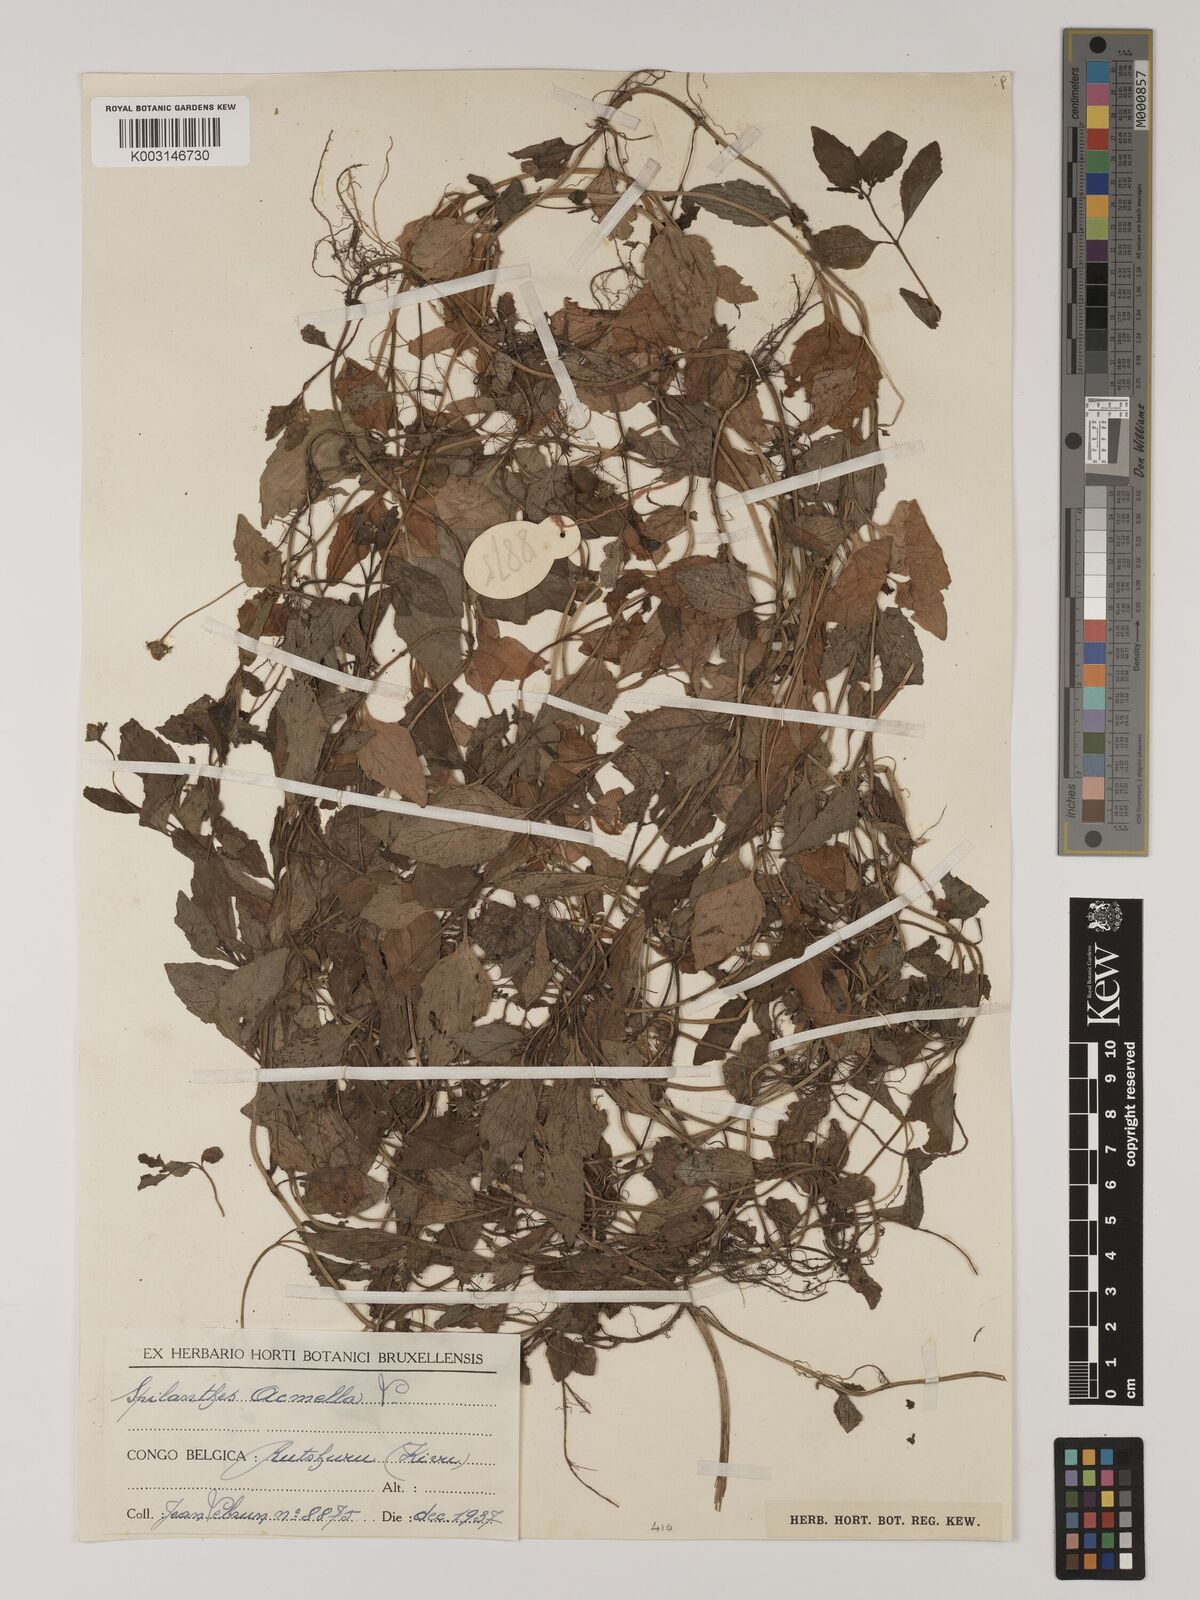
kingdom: Plantae
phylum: Tracheophyta
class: Magnoliopsida
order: Asterales
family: Asteraceae
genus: Blainvillea
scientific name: Blainvillea acmella
